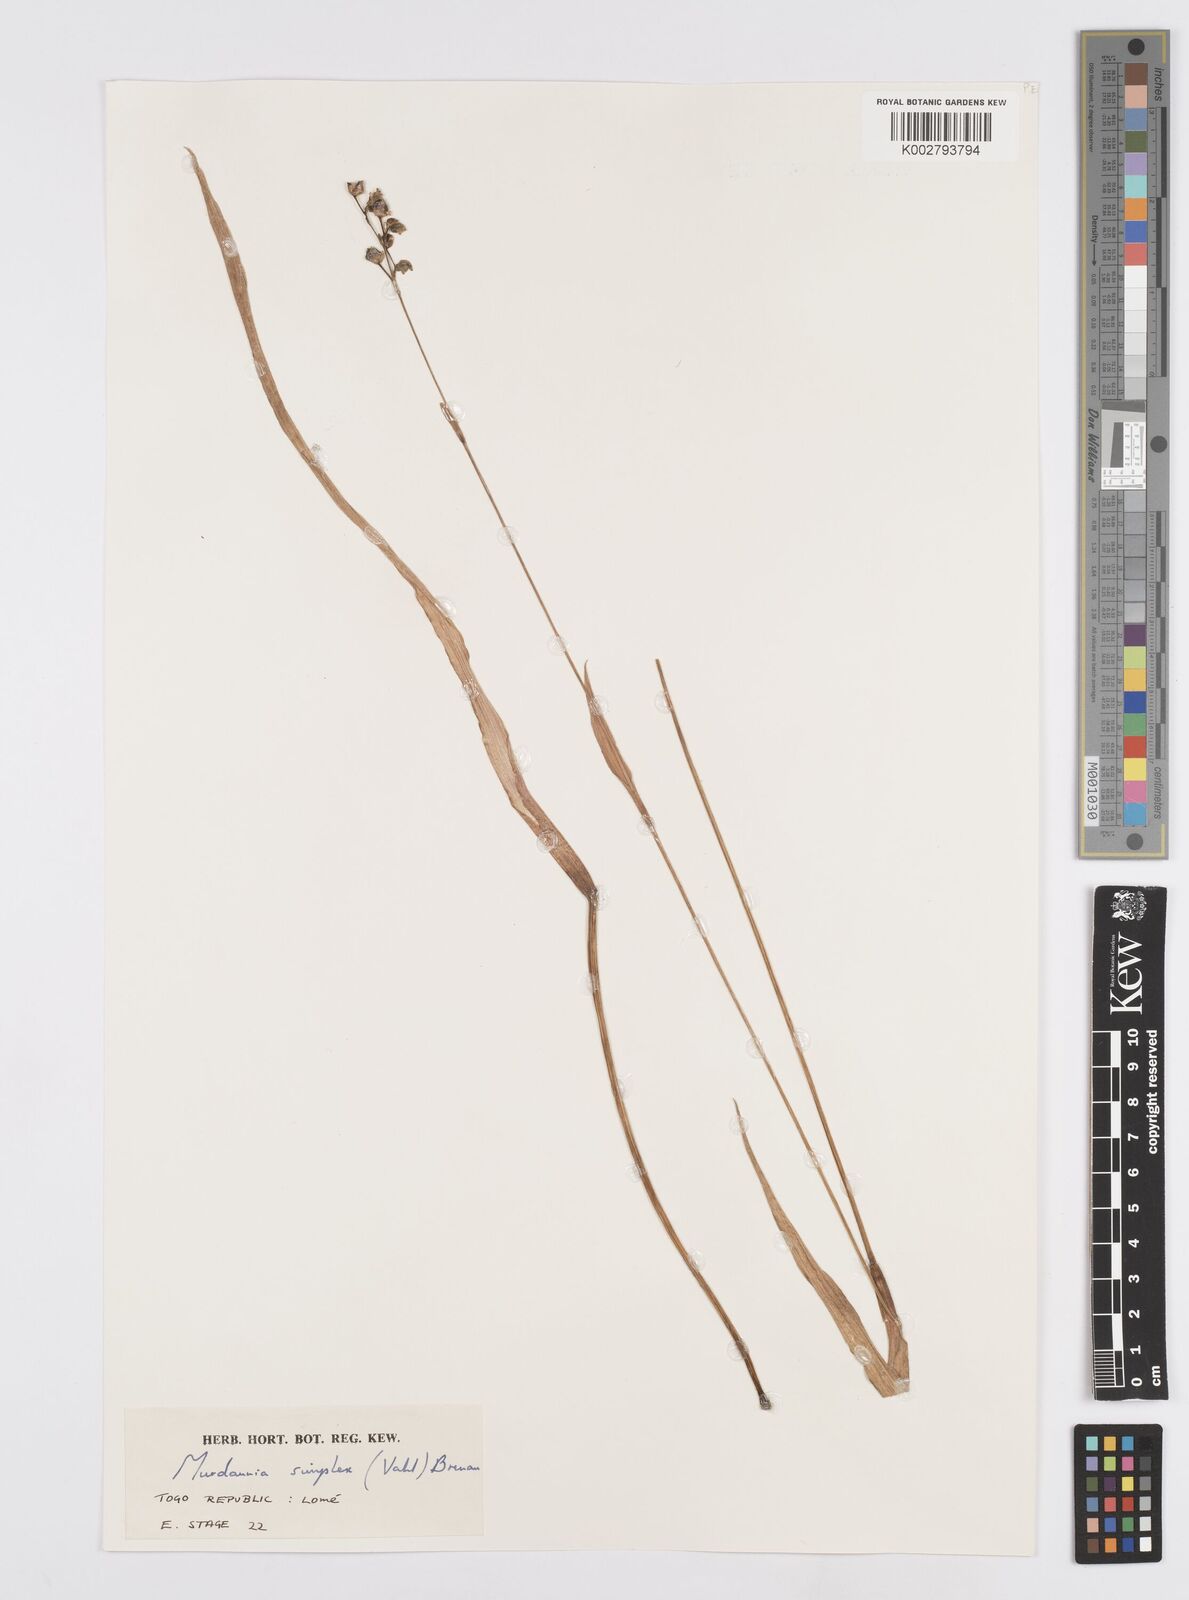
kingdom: Plantae
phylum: Tracheophyta
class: Liliopsida
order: Commelinales
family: Commelinaceae
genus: Murdannia
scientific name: Murdannia simplex
